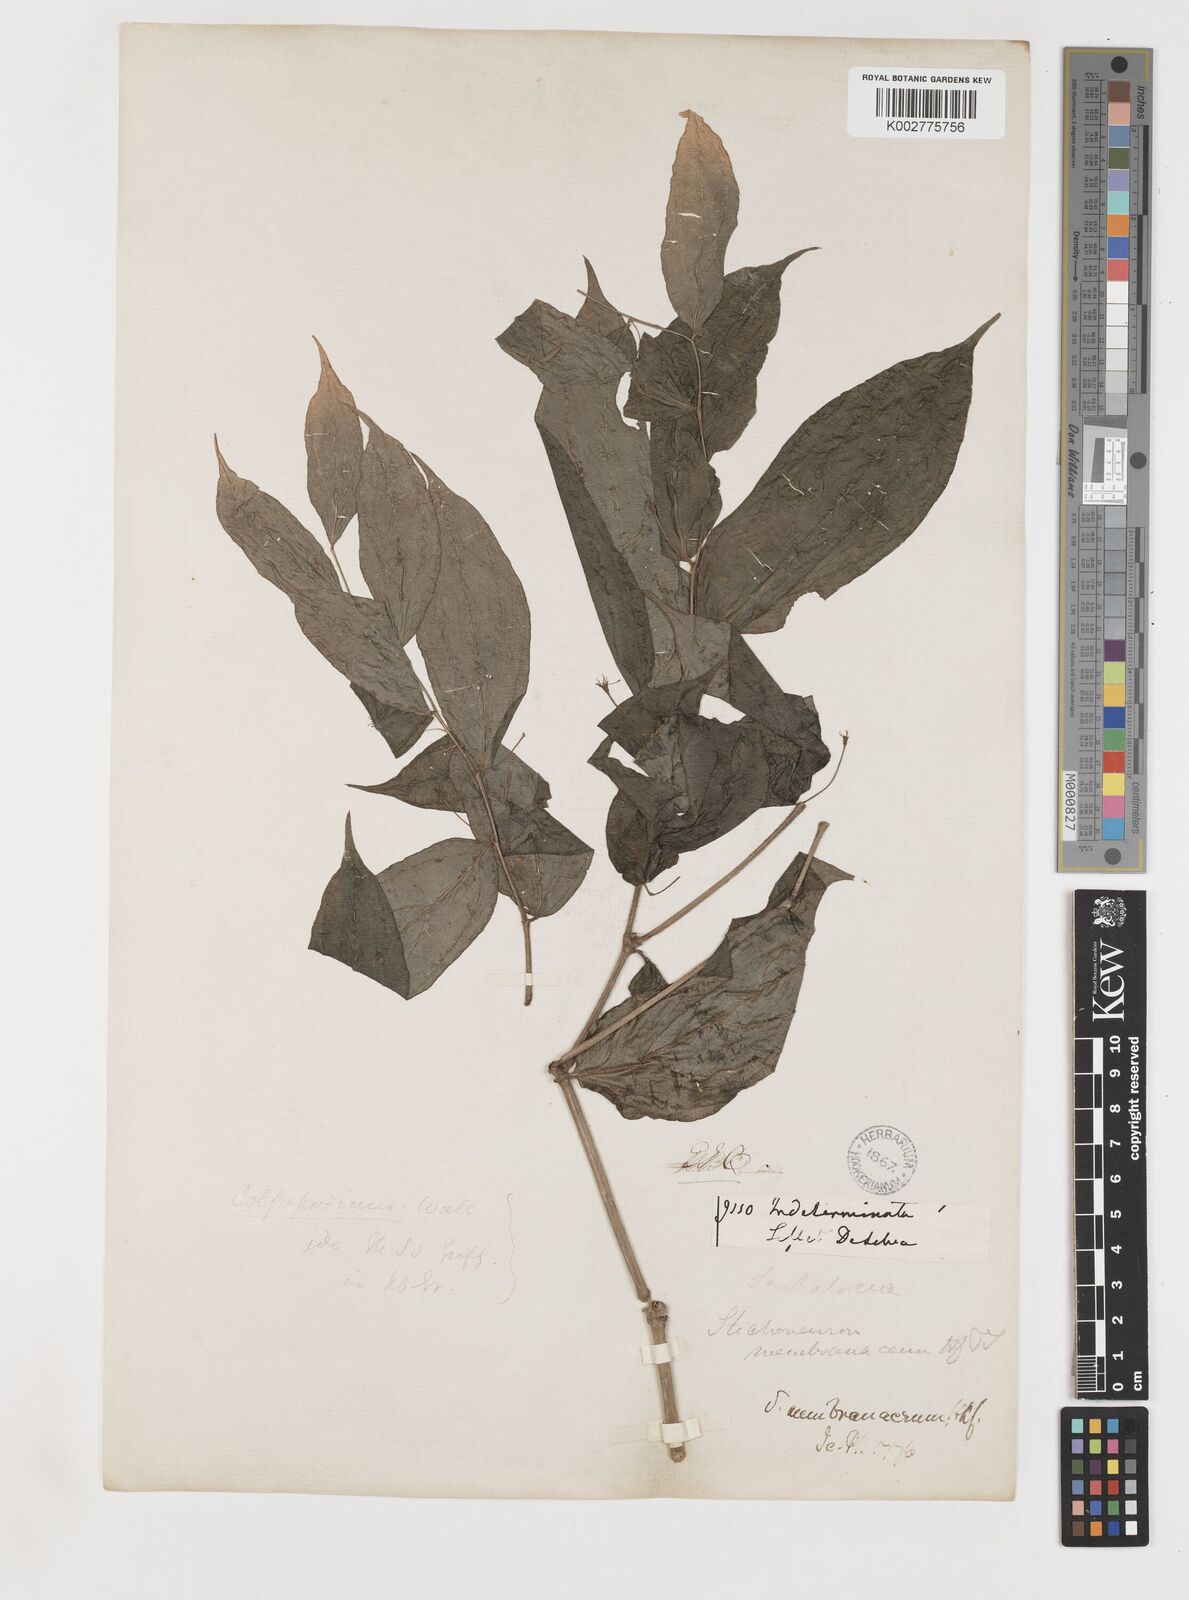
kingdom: Plantae
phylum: Tracheophyta
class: Liliopsida
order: Pandanales
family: Stemonaceae
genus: Stichoneuron
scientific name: Stichoneuron membranaceum
